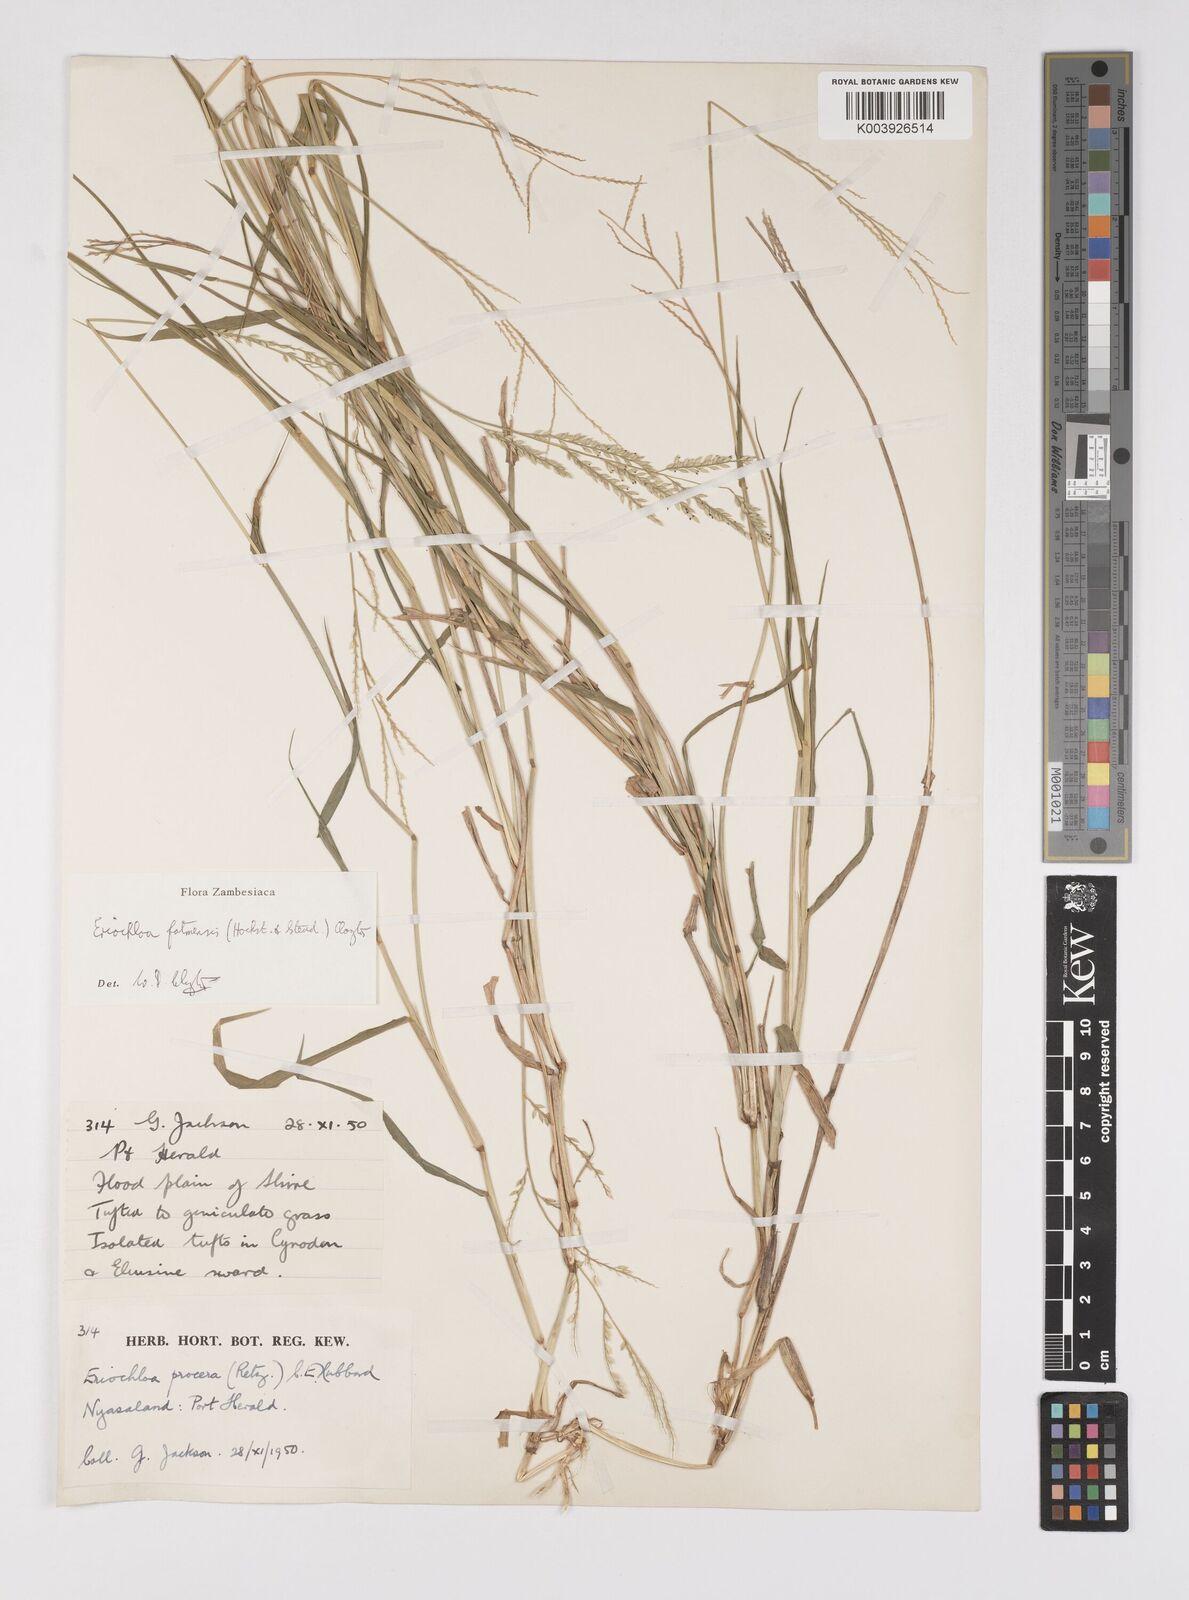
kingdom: Plantae
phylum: Tracheophyta
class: Liliopsida
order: Poales
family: Poaceae
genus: Eriochloa
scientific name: Eriochloa barbatus
